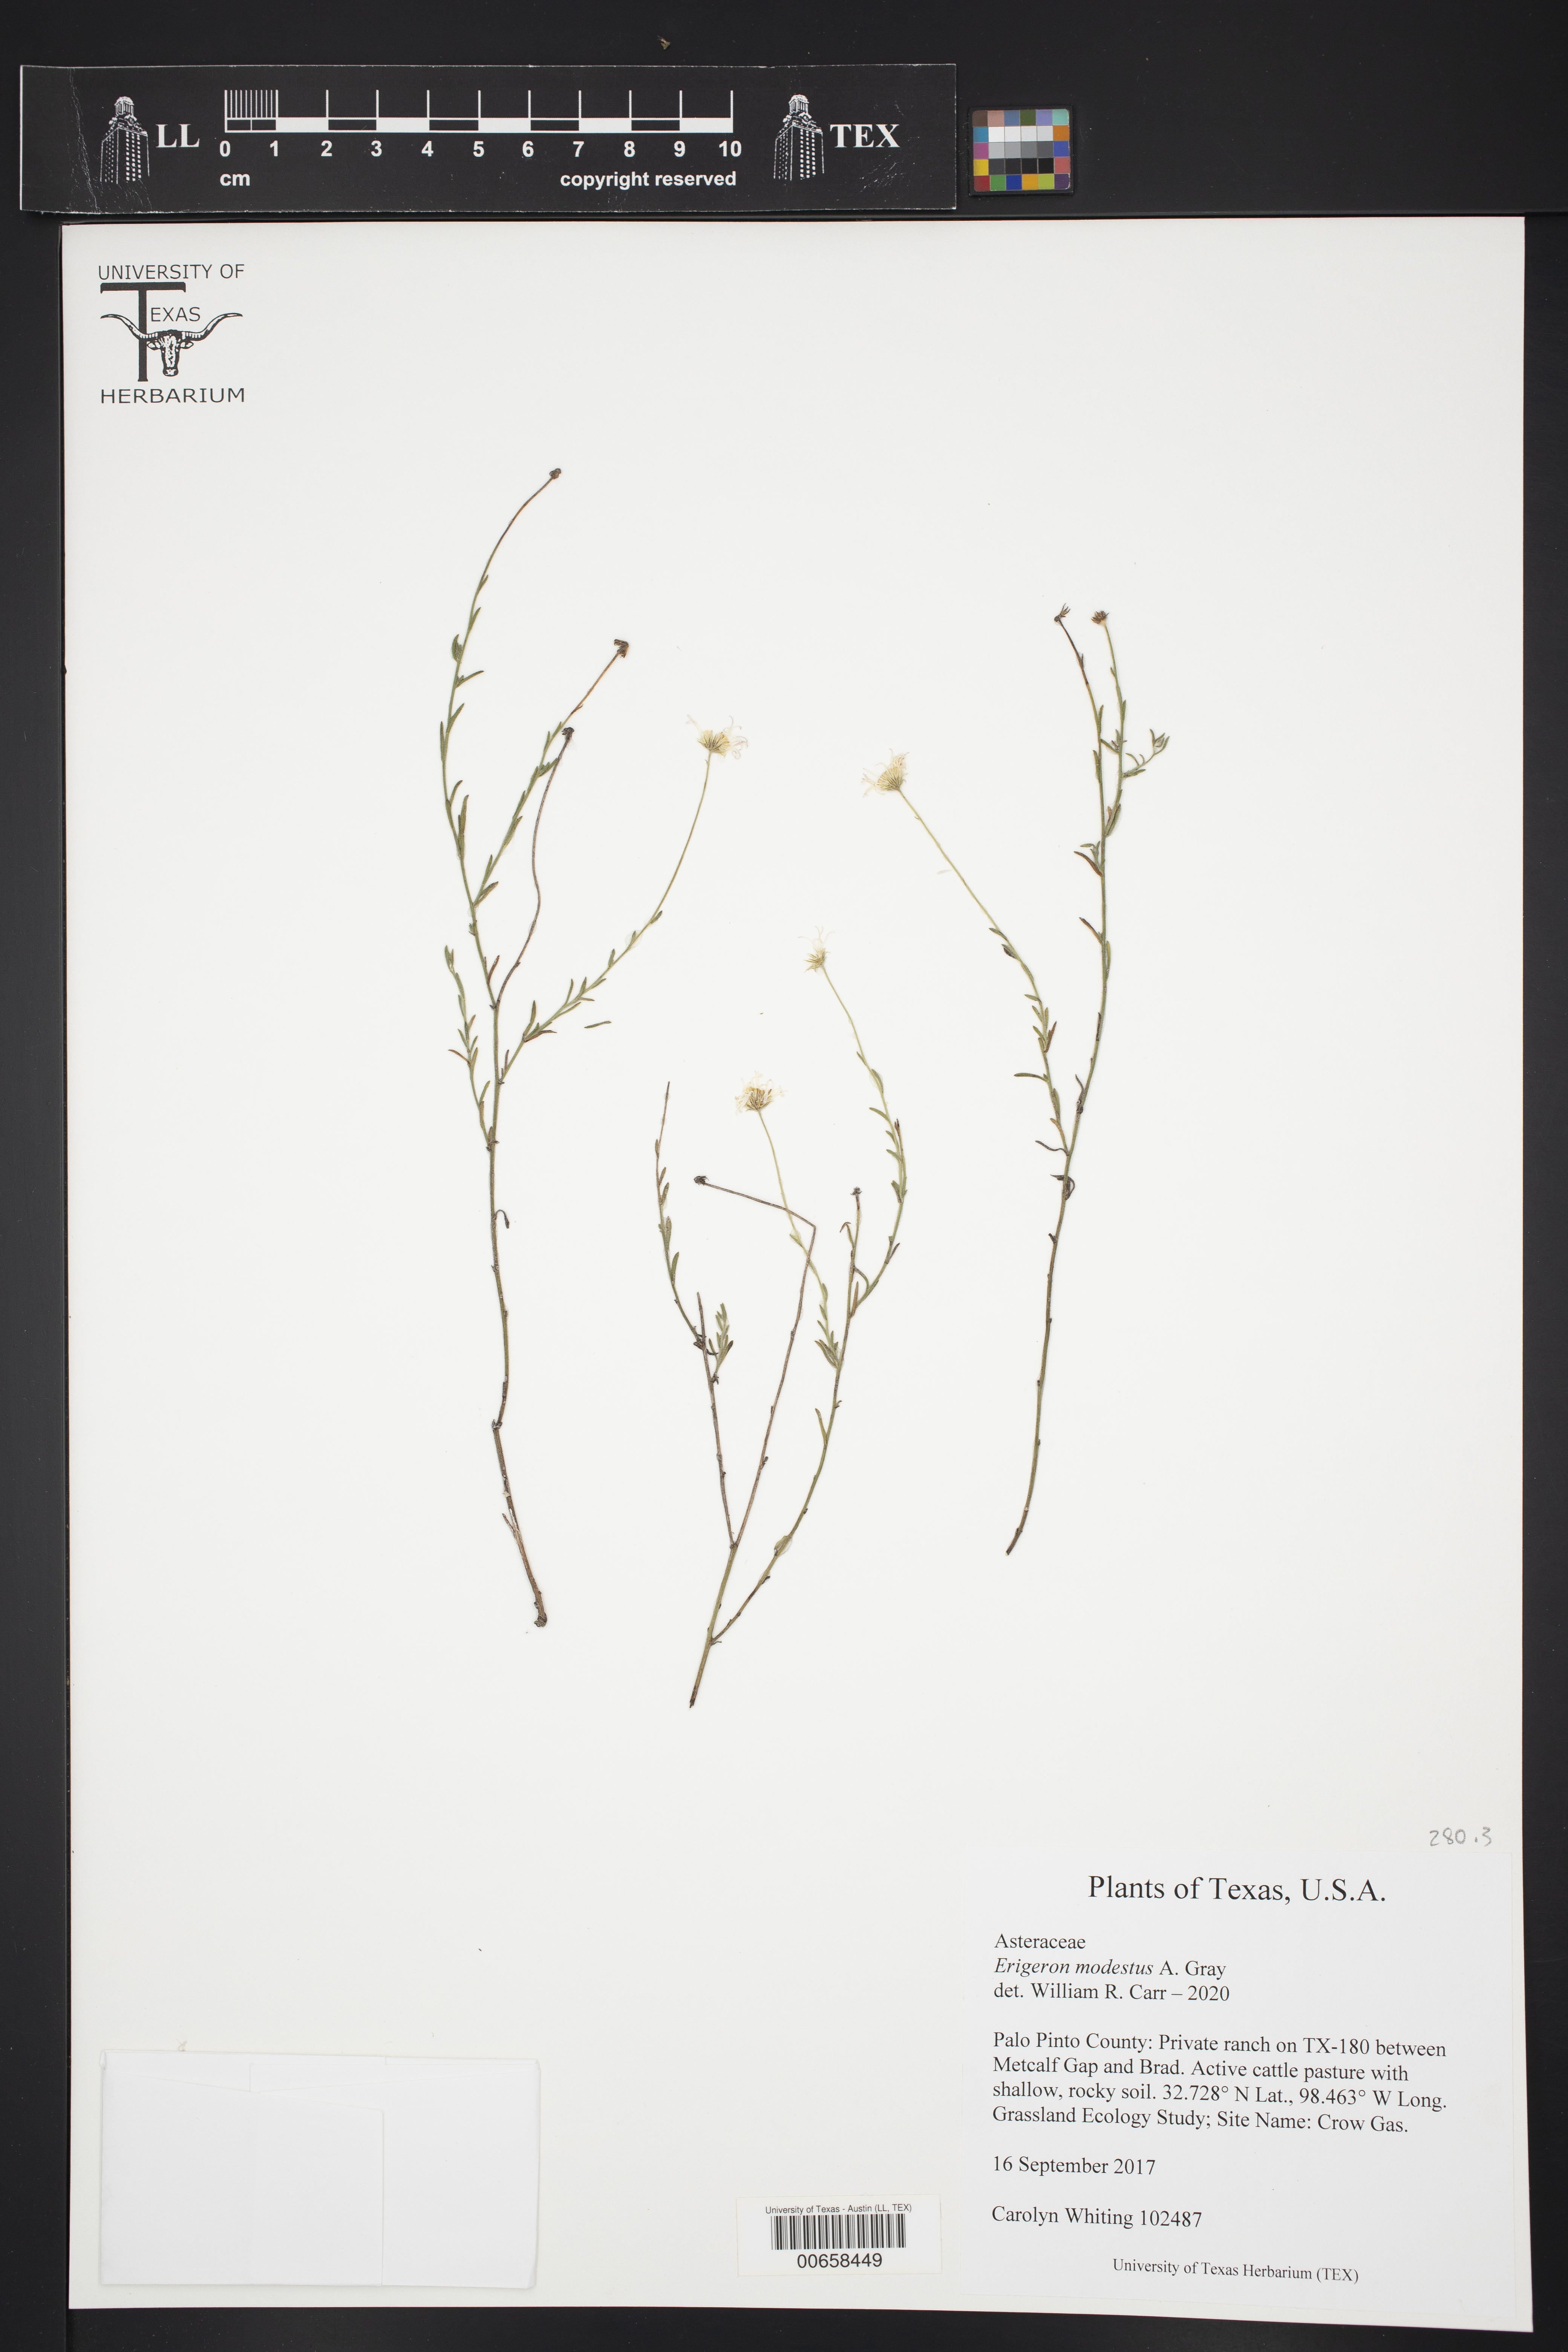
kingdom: Plantae
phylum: Tracheophyta
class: Magnoliopsida
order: Asterales
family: Asteraceae
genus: Erigeron
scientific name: Erigeron modestus
